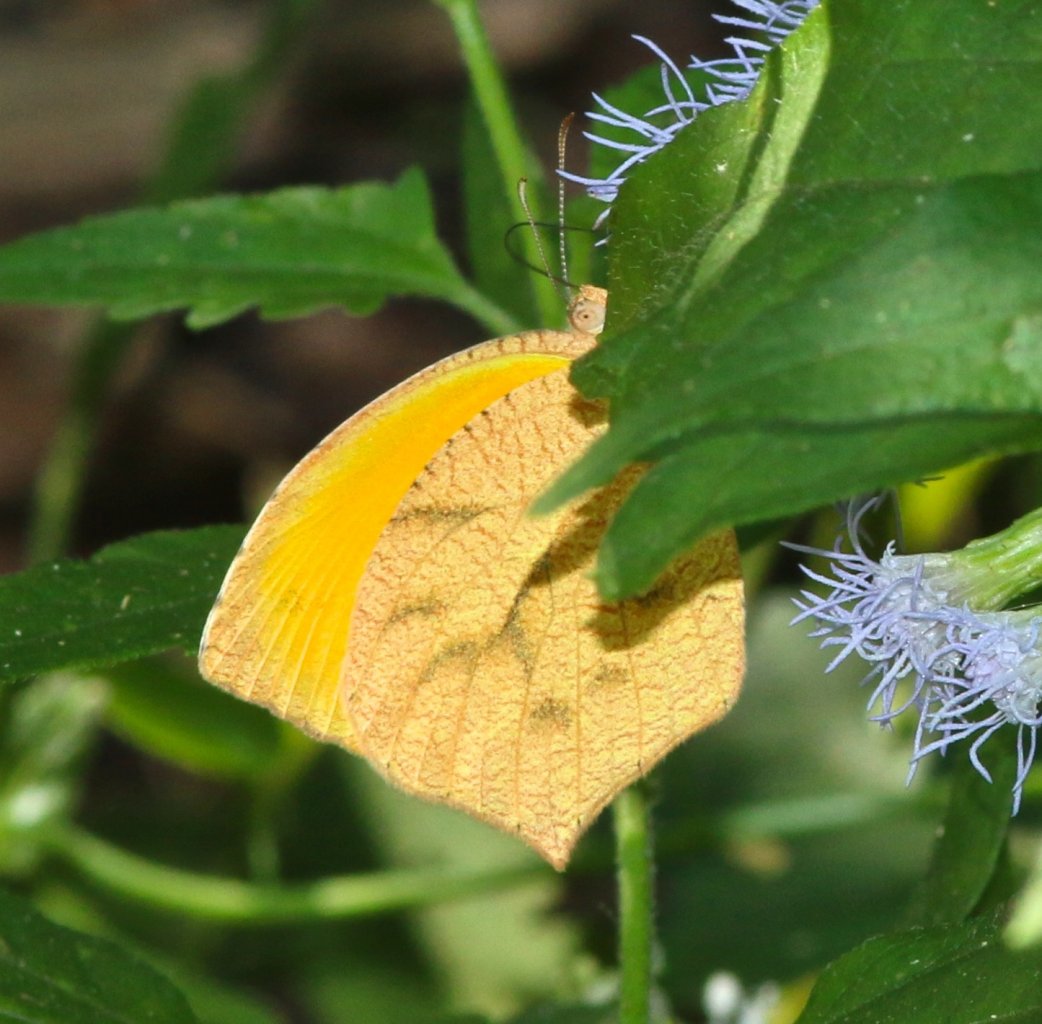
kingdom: Animalia
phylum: Arthropoda
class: Insecta
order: Lepidoptera
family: Pieridae
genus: Pyrisitia
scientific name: Pyrisitia proterpia
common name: Tailed Orange
